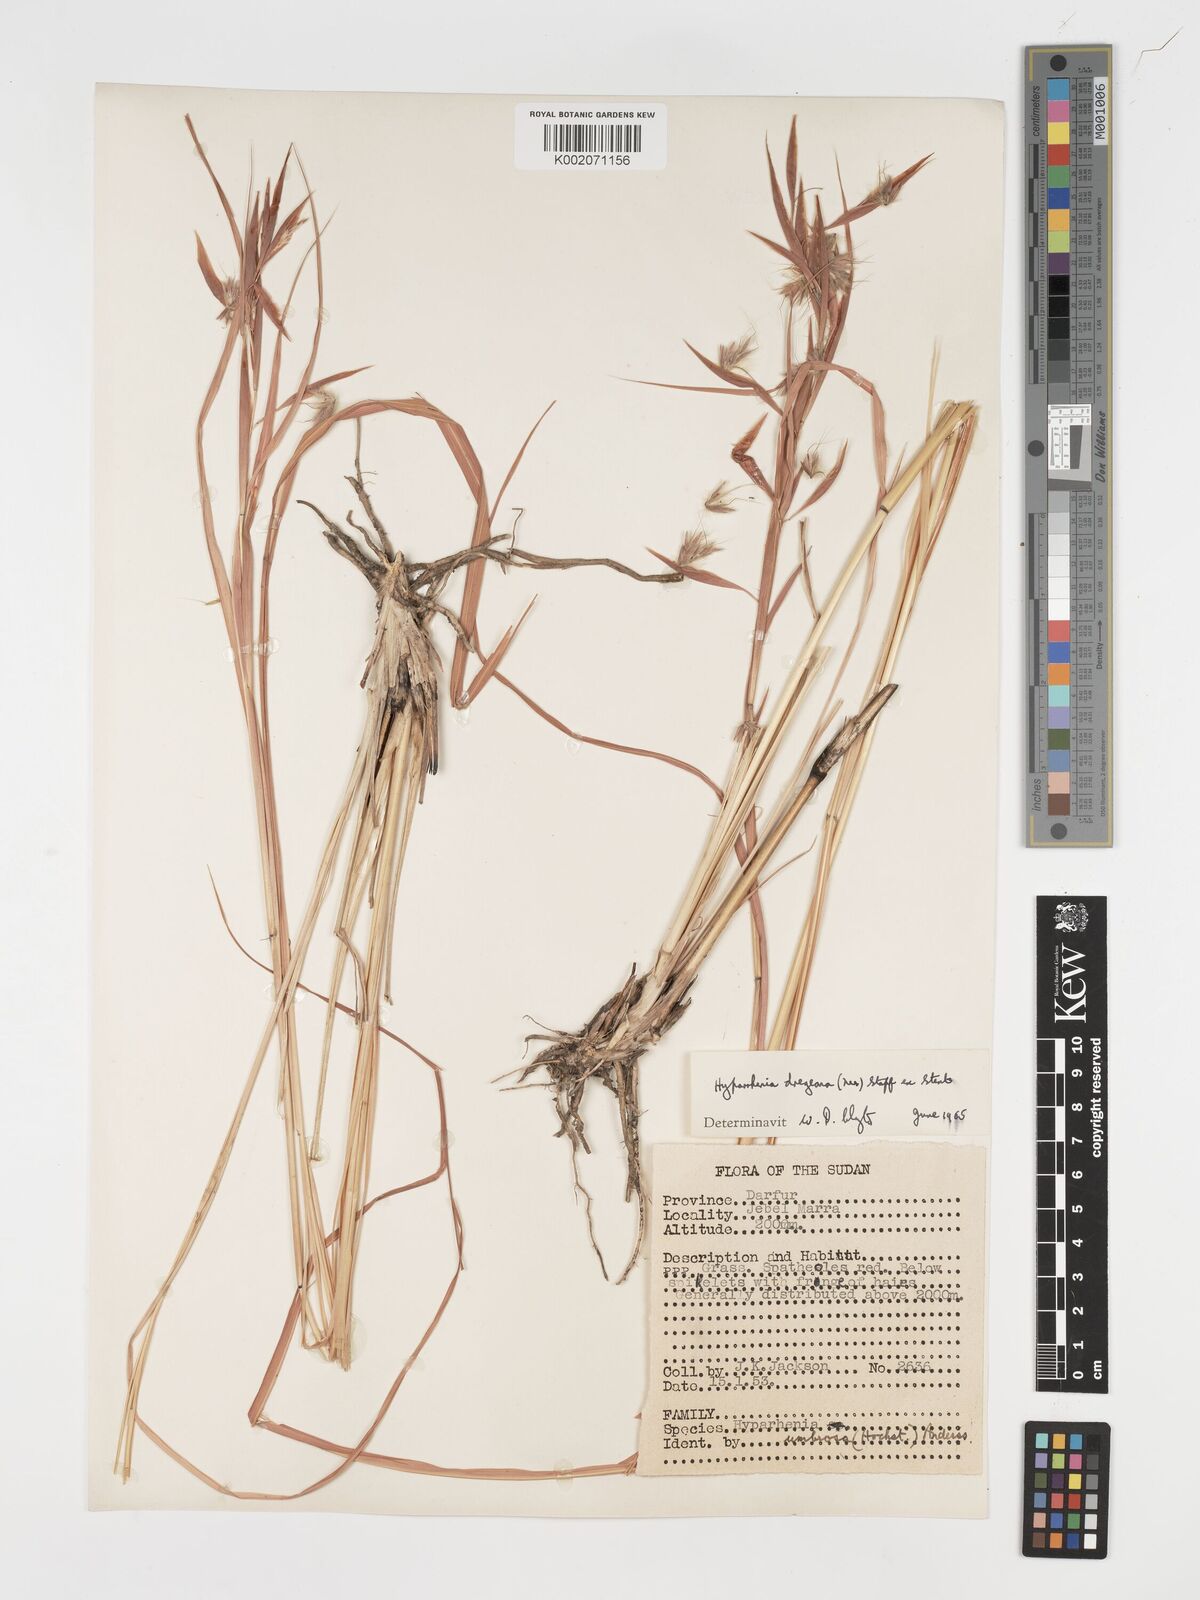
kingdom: Plantae
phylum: Tracheophyta
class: Liliopsida
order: Poales
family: Poaceae
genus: Hyparrhenia
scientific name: Hyparrhenia dregeana
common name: Silky thatching grass
